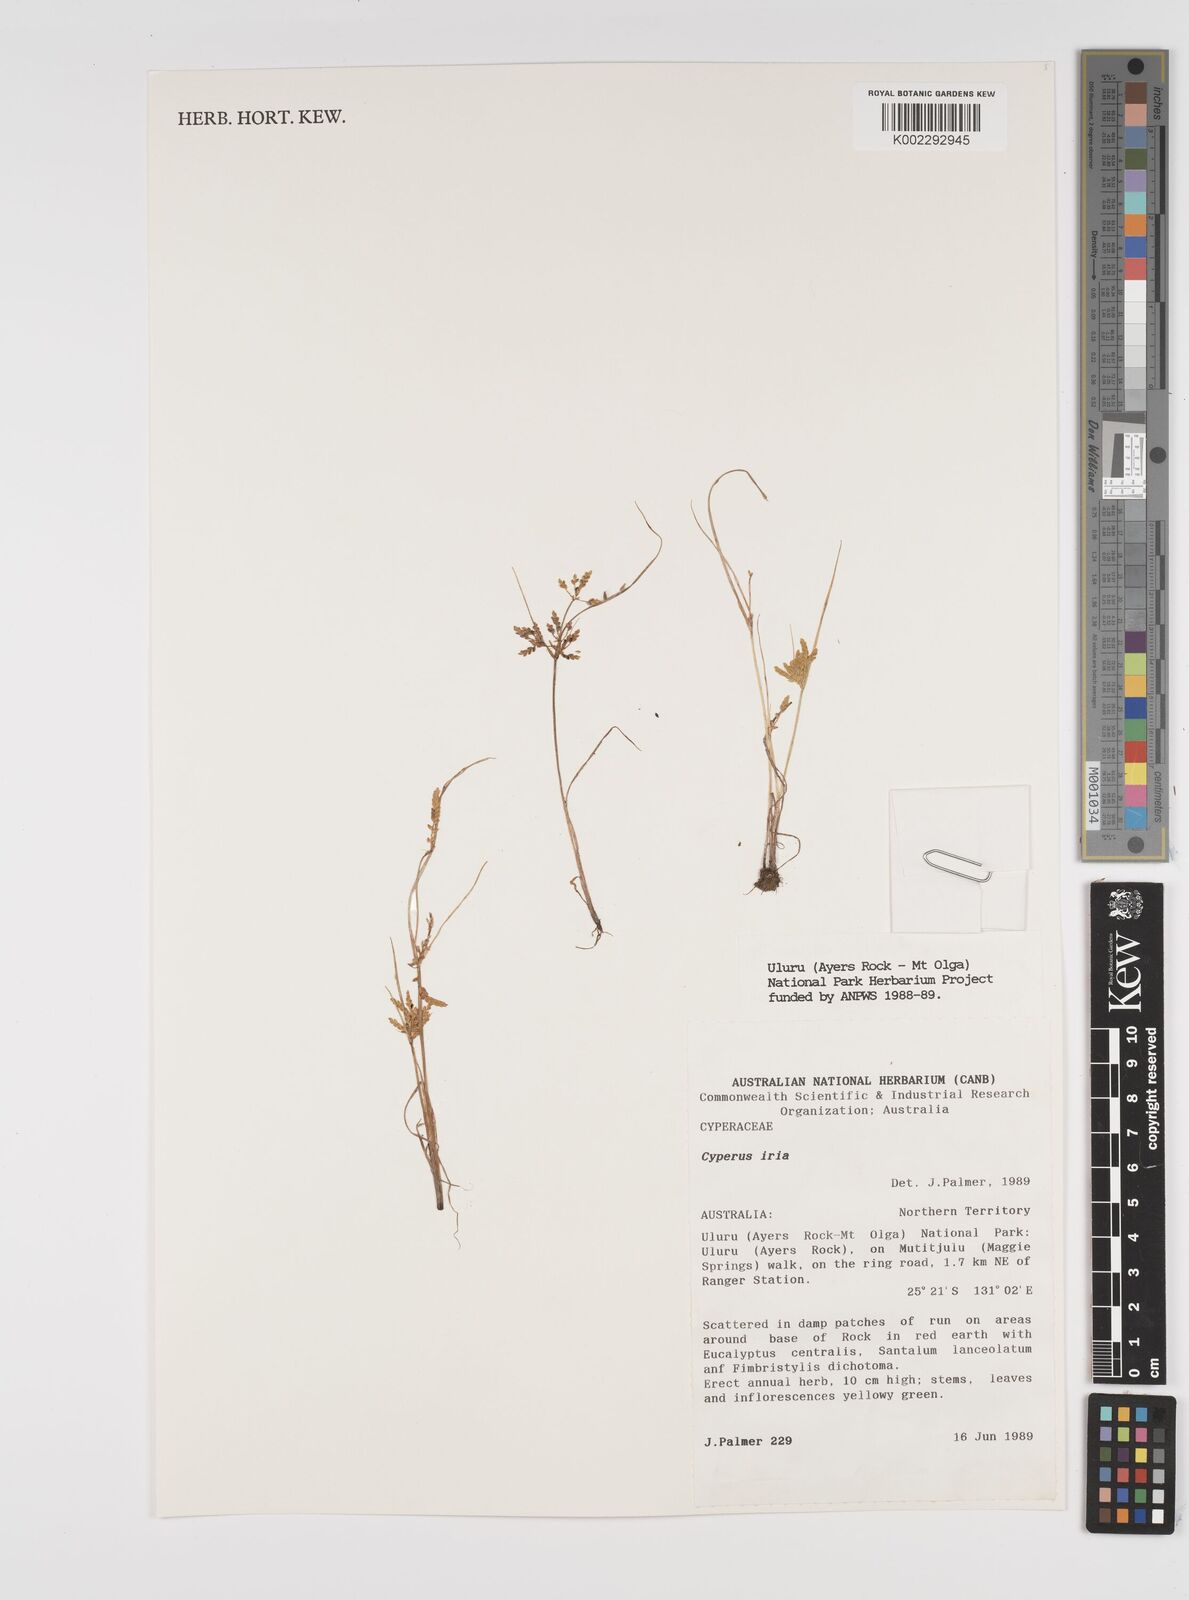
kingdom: Plantae
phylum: Tracheophyta
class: Liliopsida
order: Poales
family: Cyperaceae
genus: Cyperus
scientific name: Cyperus iria
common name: Ricefield flatsedge
